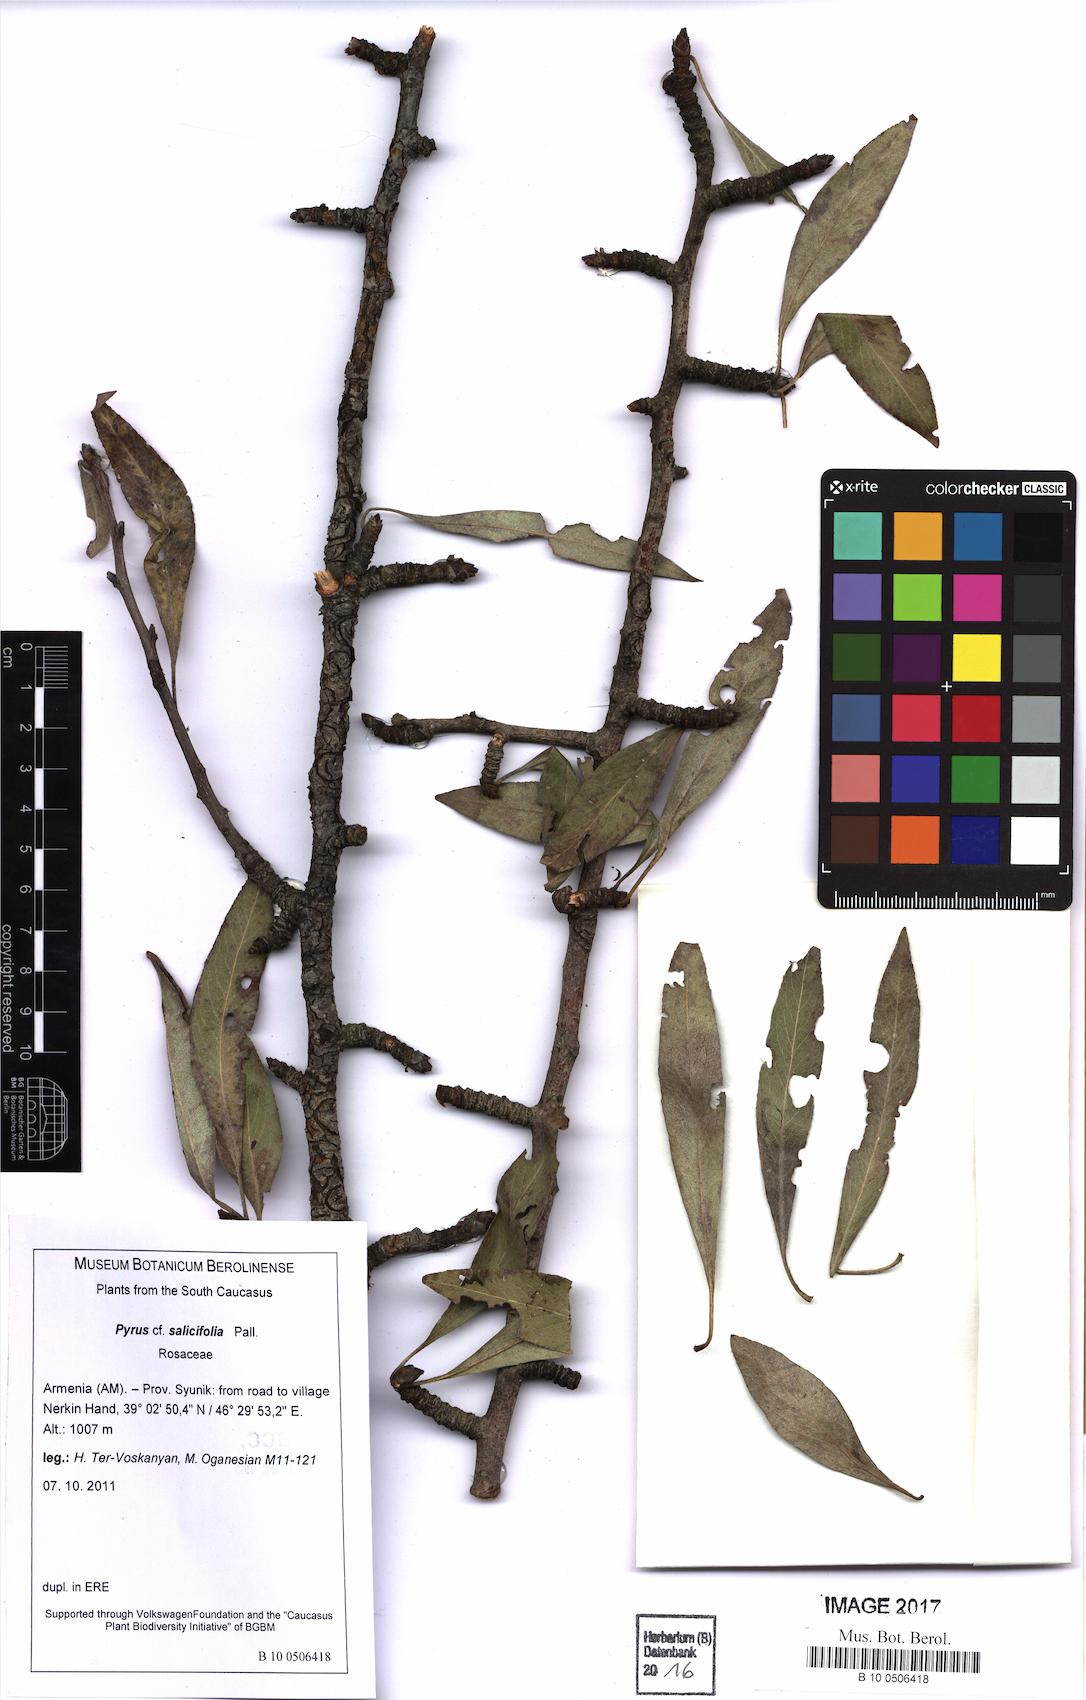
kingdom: Plantae
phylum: Tracheophyta
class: Magnoliopsida
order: Rosales
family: Rosaceae
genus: Pyrus
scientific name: Pyrus salicifolia
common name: Willow-leaved pear
